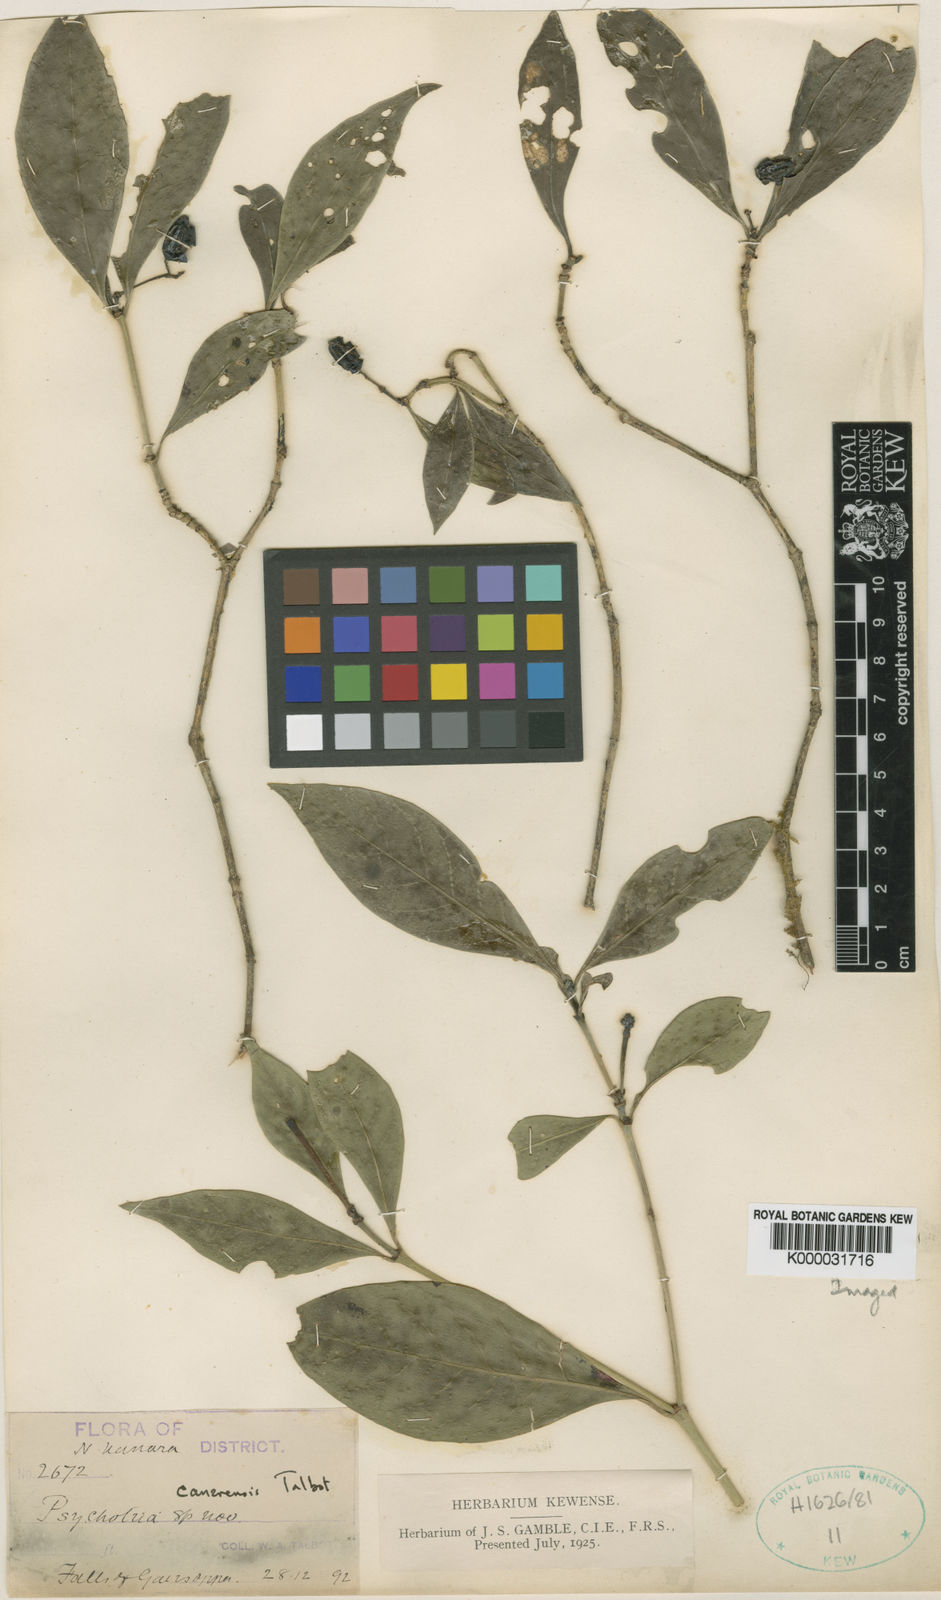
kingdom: Plantae
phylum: Tracheophyta
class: Magnoliopsida
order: Gentianales
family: Rubiaceae
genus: Psychotria
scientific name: Psychotria canarensis
